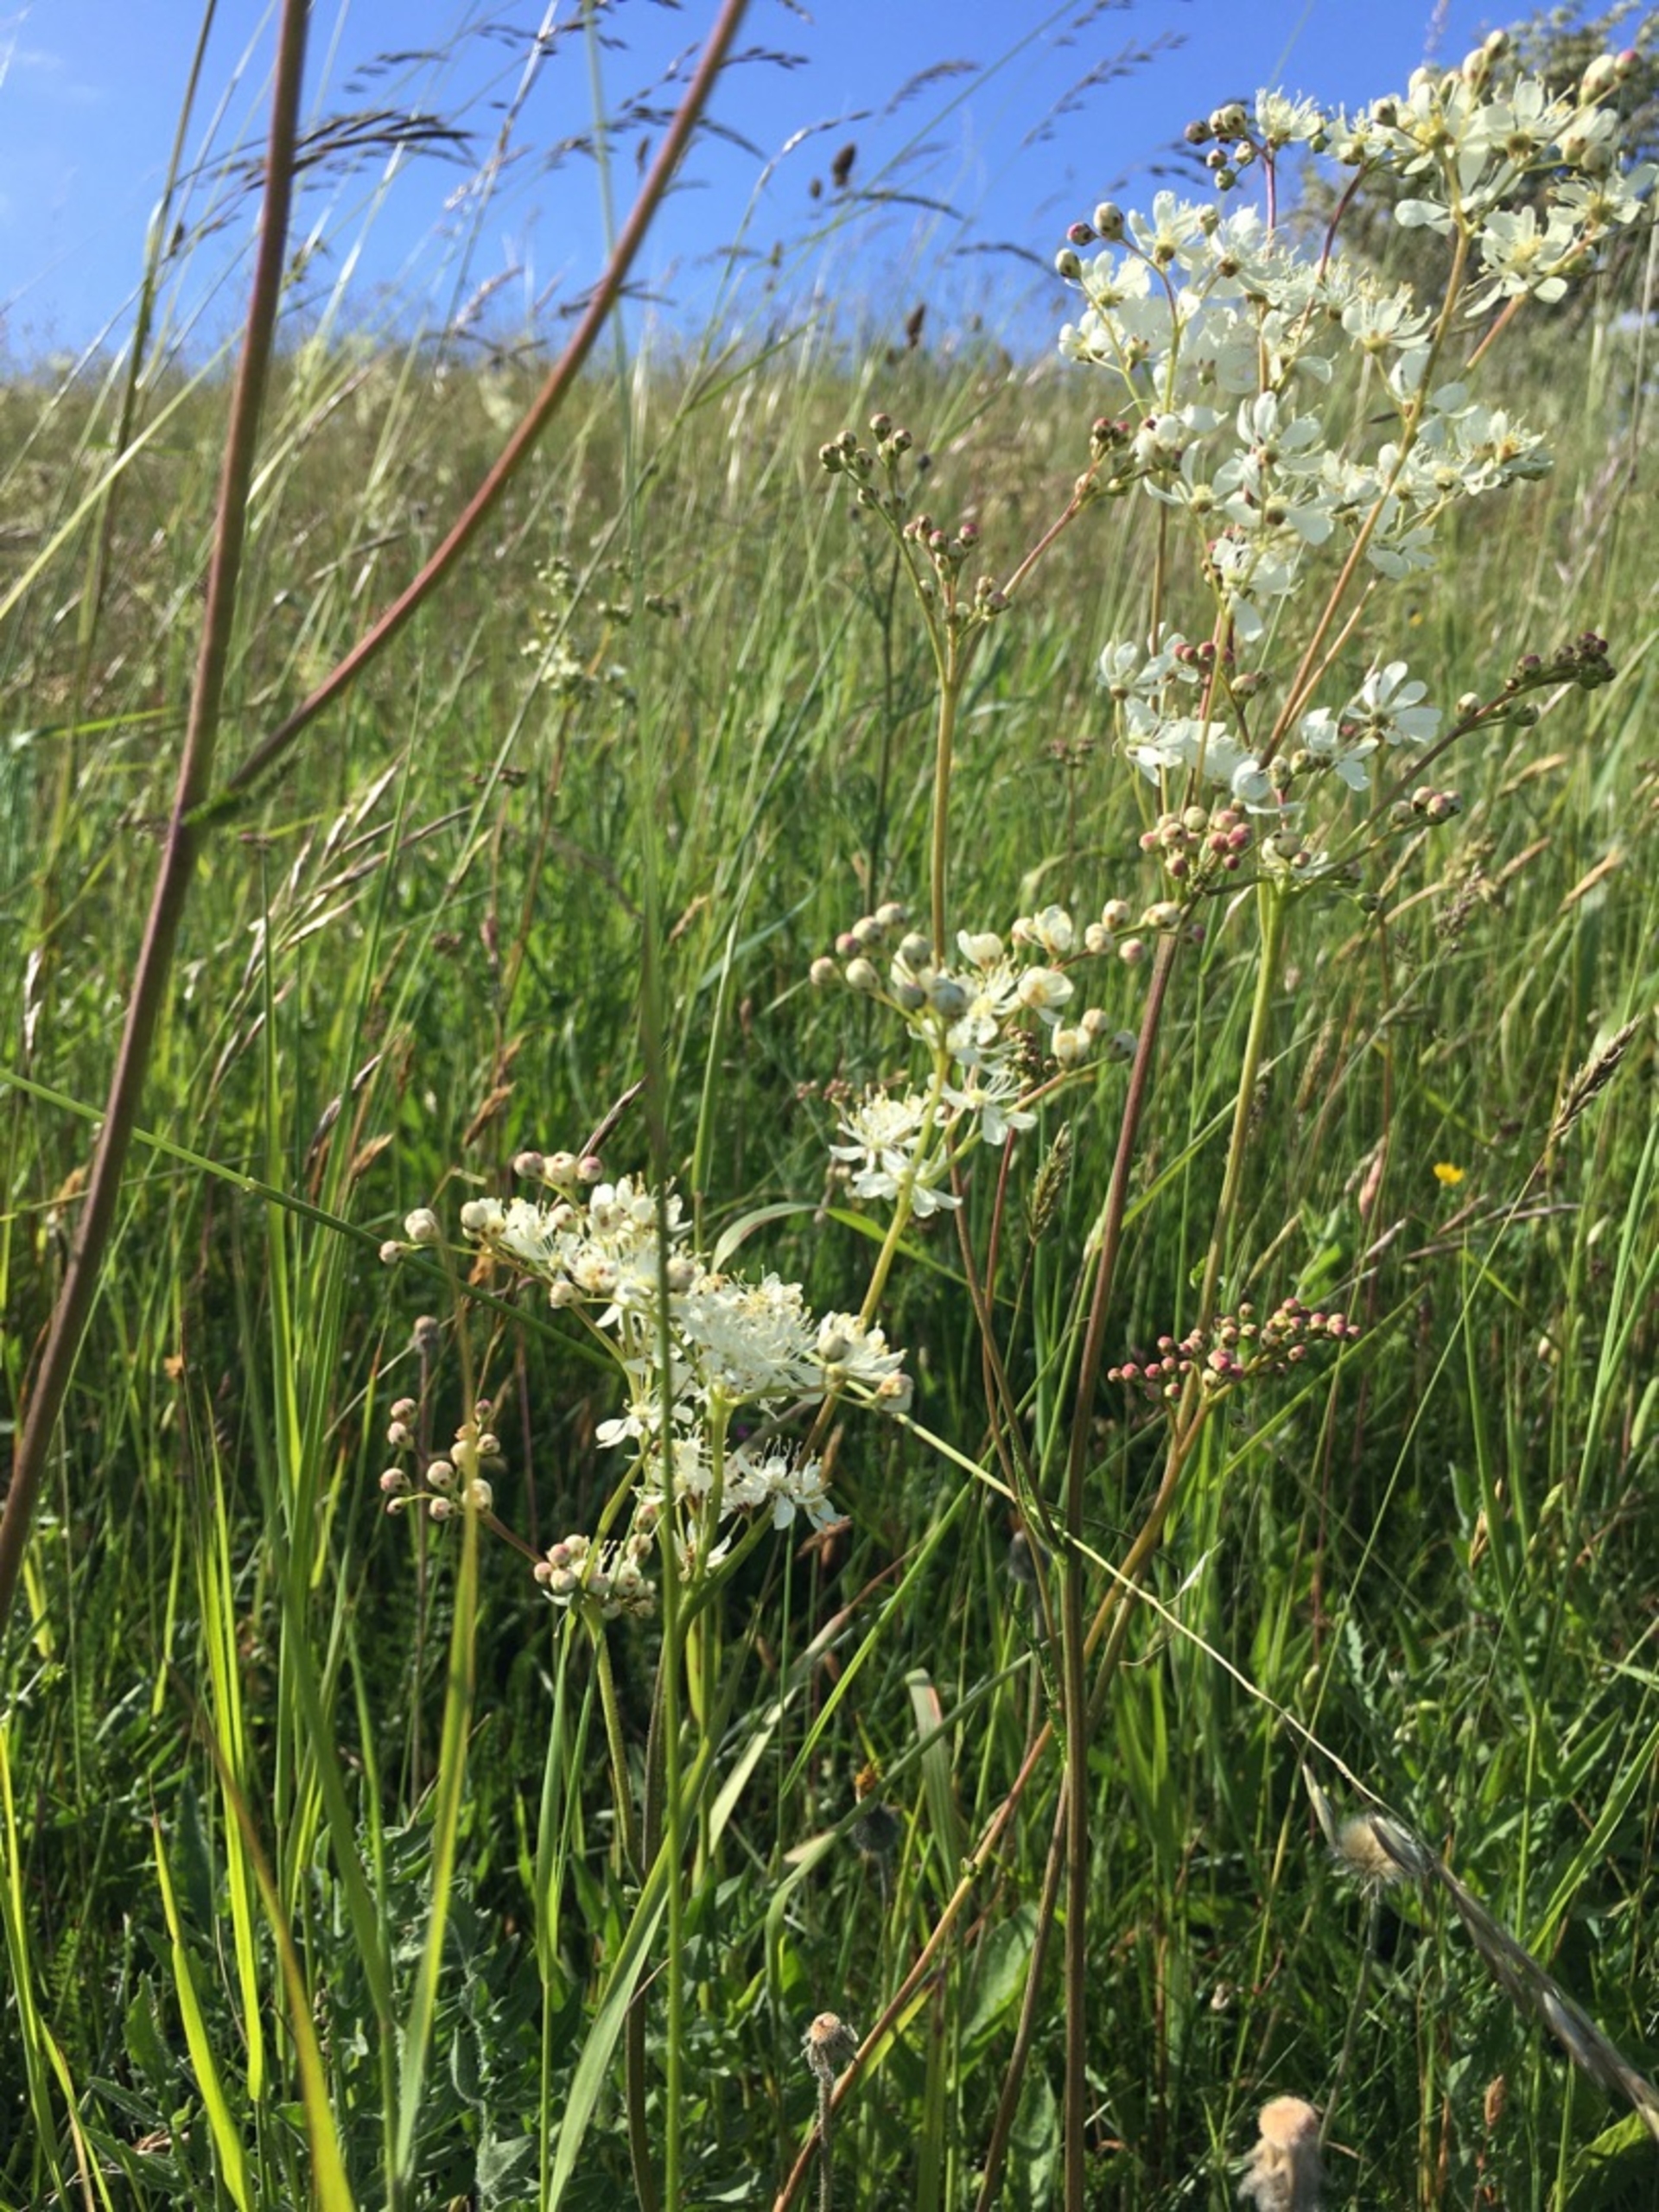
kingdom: Plantae
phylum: Tracheophyta
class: Magnoliopsida
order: Rosales
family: Rosaceae
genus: Filipendula
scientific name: Filipendula vulgaris
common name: Knoldet mjødurt
